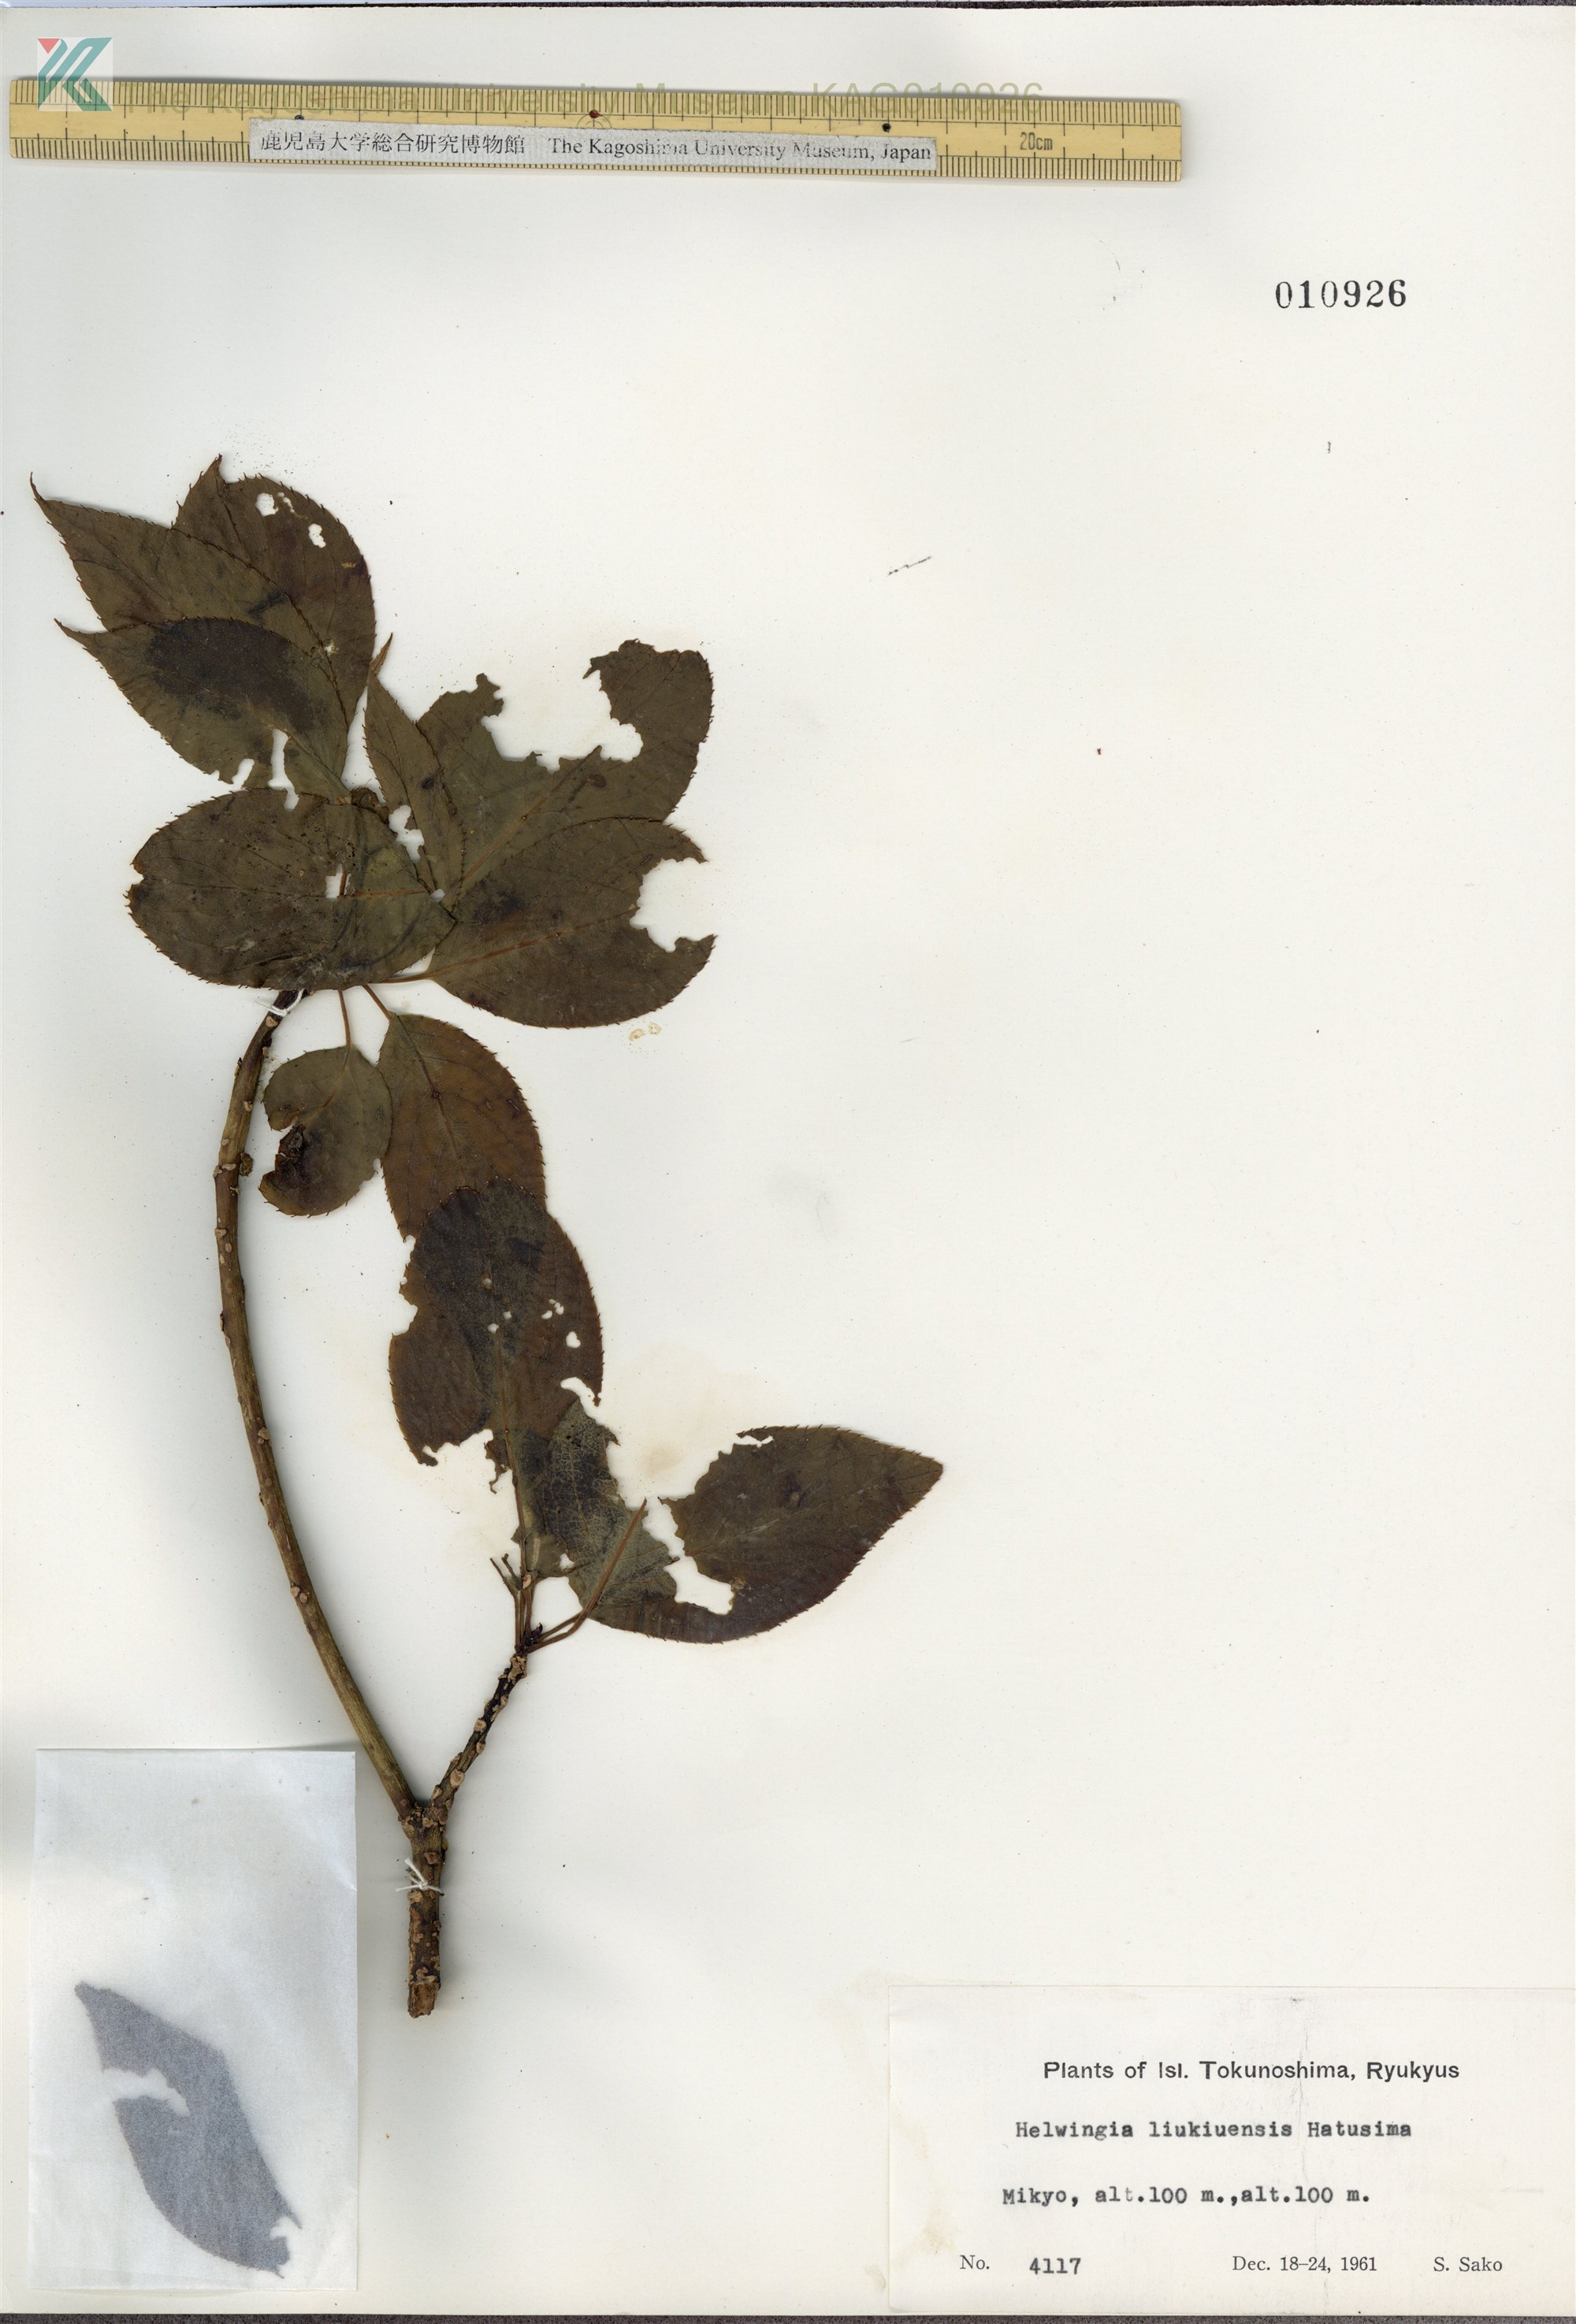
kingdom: Plantae
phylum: Tracheophyta
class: Magnoliopsida
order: Aquifoliales
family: Helwingiaceae
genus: Helwingia
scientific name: Helwingia japonica
